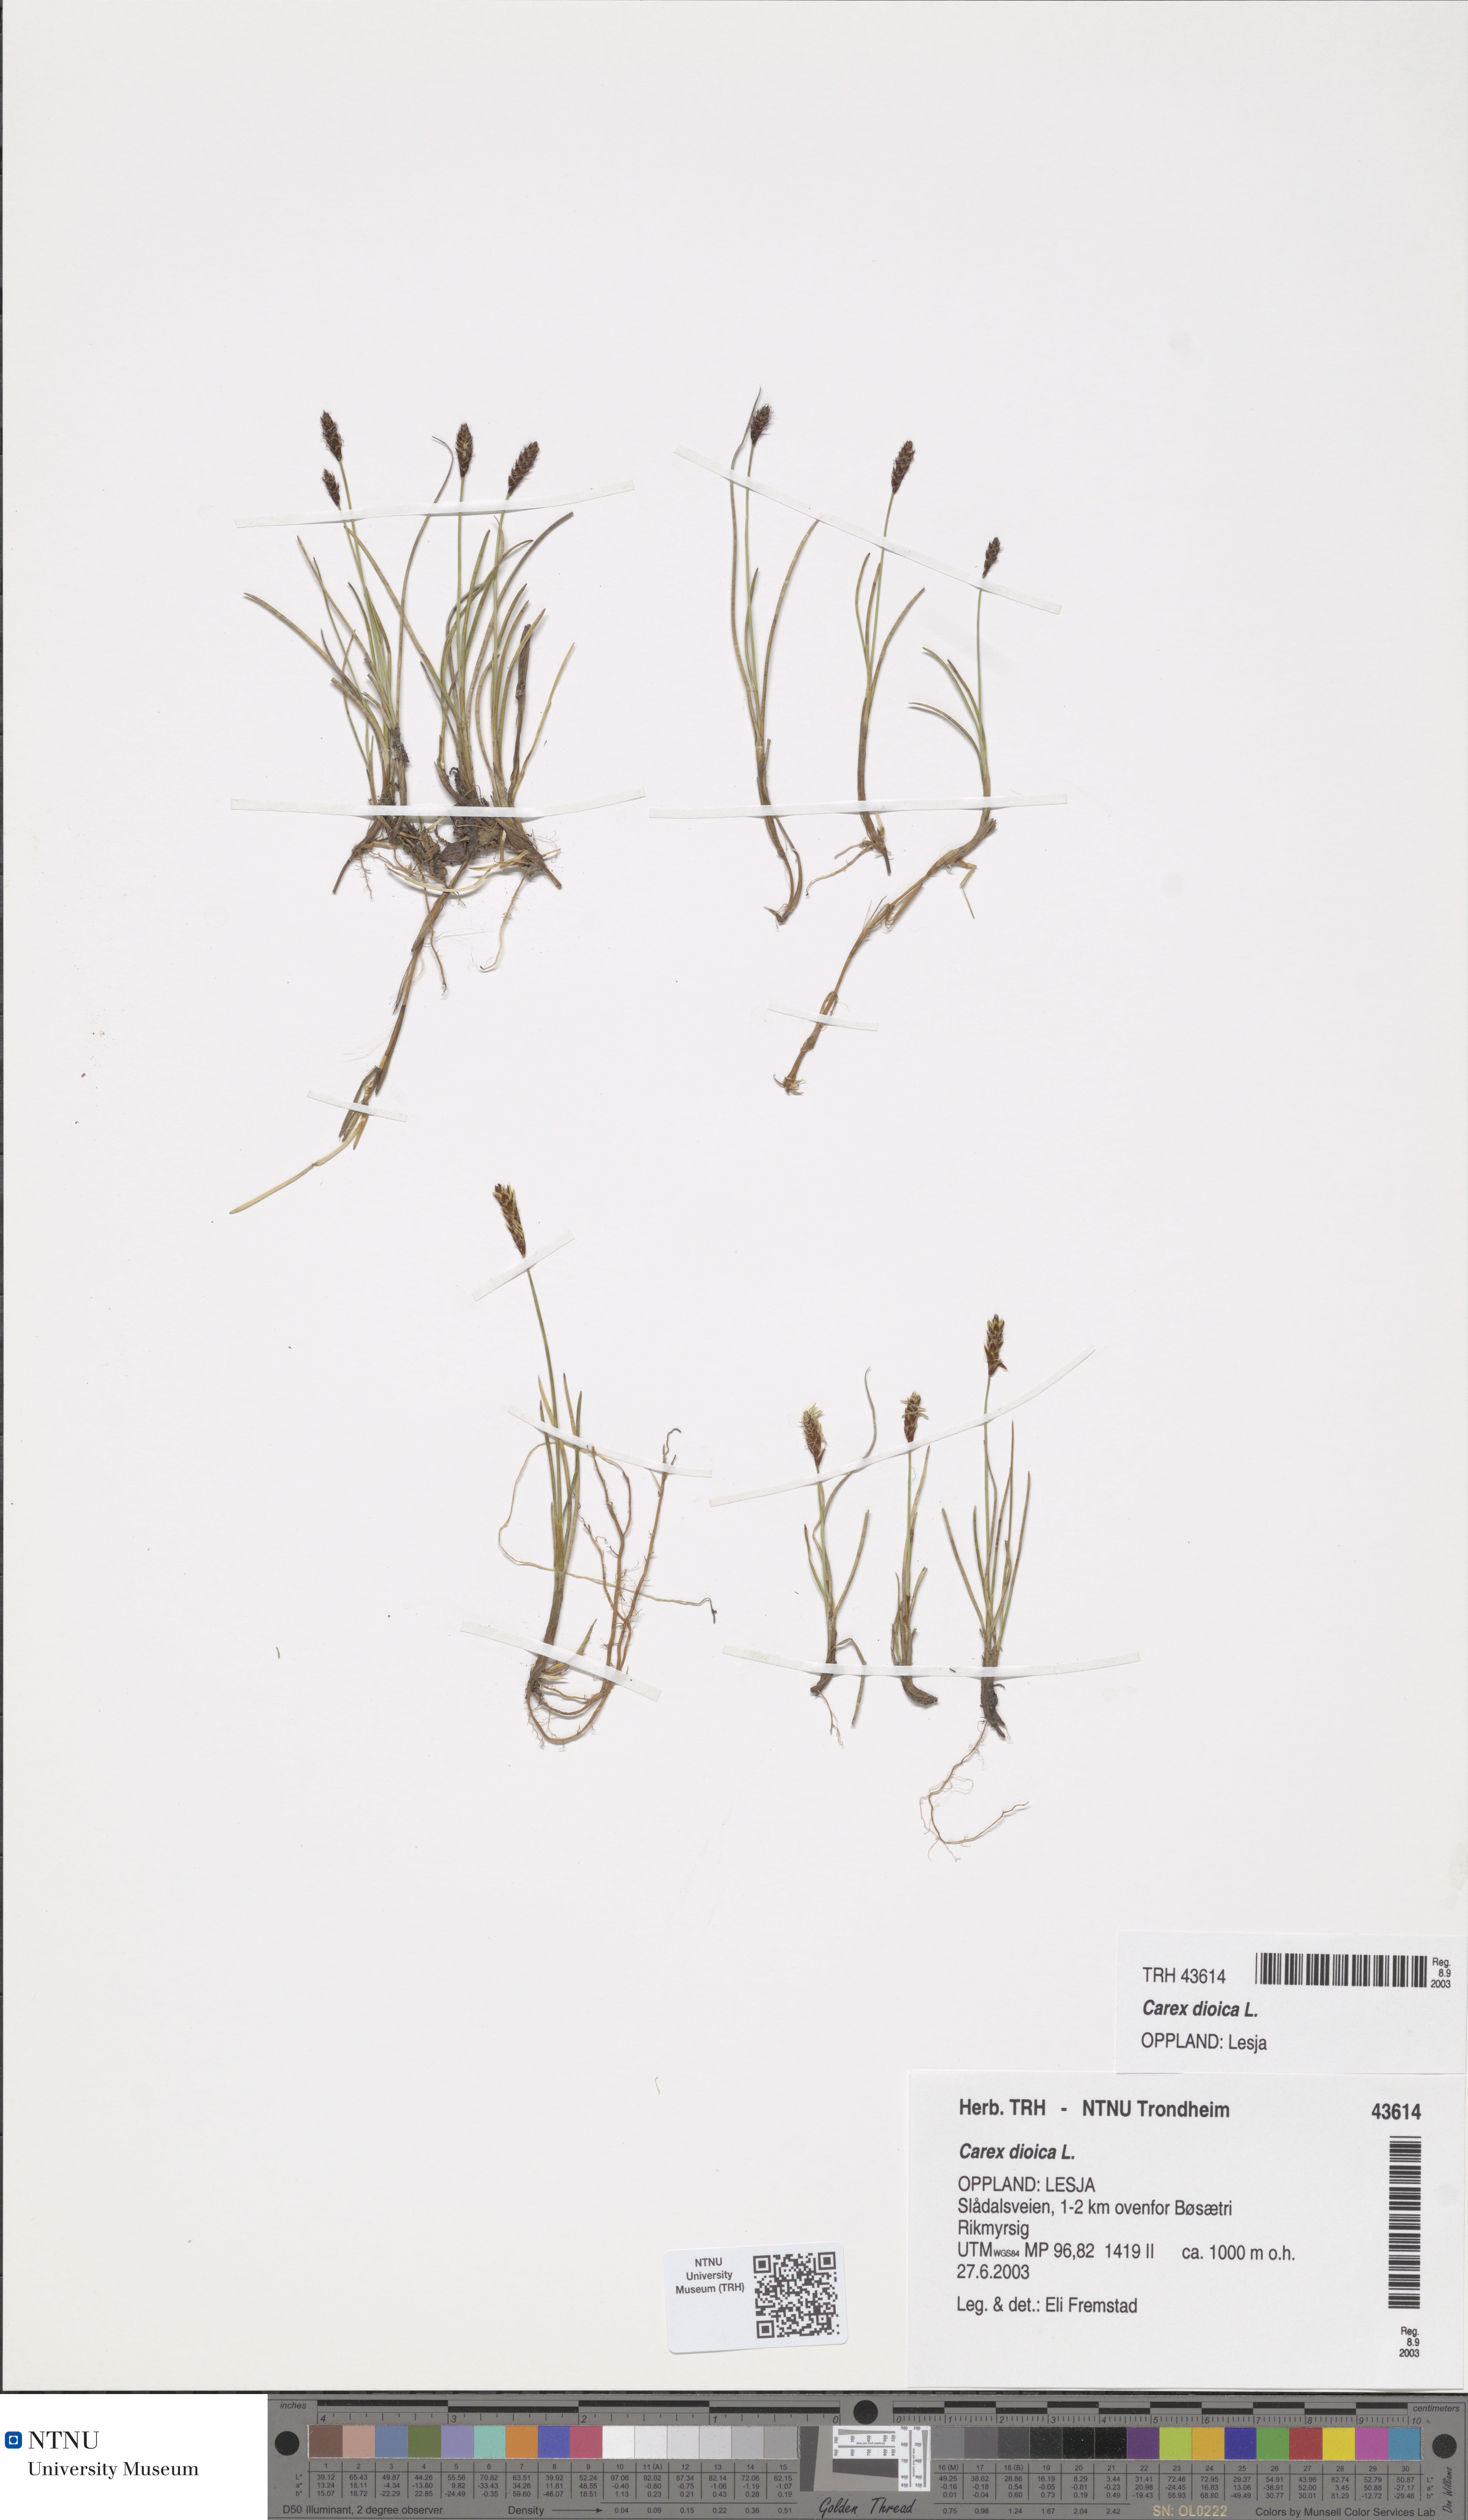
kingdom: Plantae
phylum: Tracheophyta
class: Liliopsida
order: Poales
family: Cyperaceae
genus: Carex
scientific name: Carex dioica
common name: Dioecious sedge
